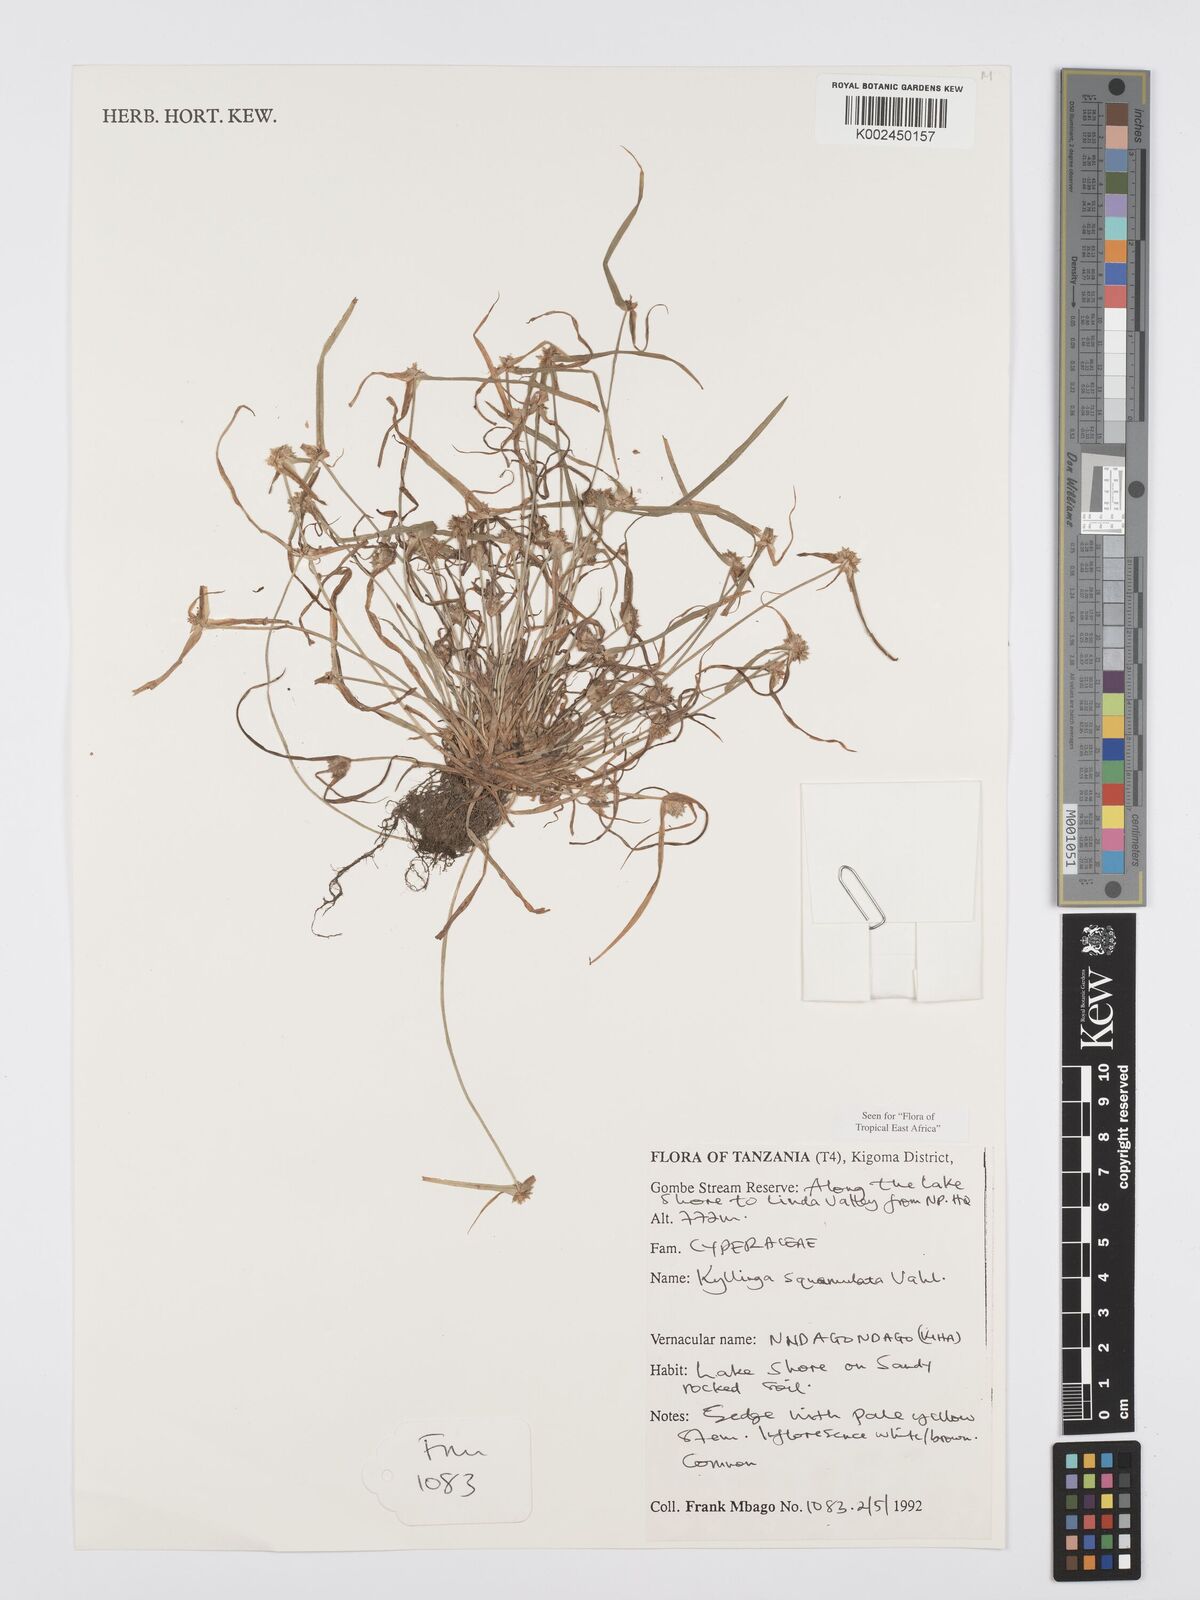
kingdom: Plantae
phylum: Tracheophyta
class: Liliopsida
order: Poales
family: Cyperaceae
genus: Cyperus
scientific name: Cyperus distans
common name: Slender cyperus
